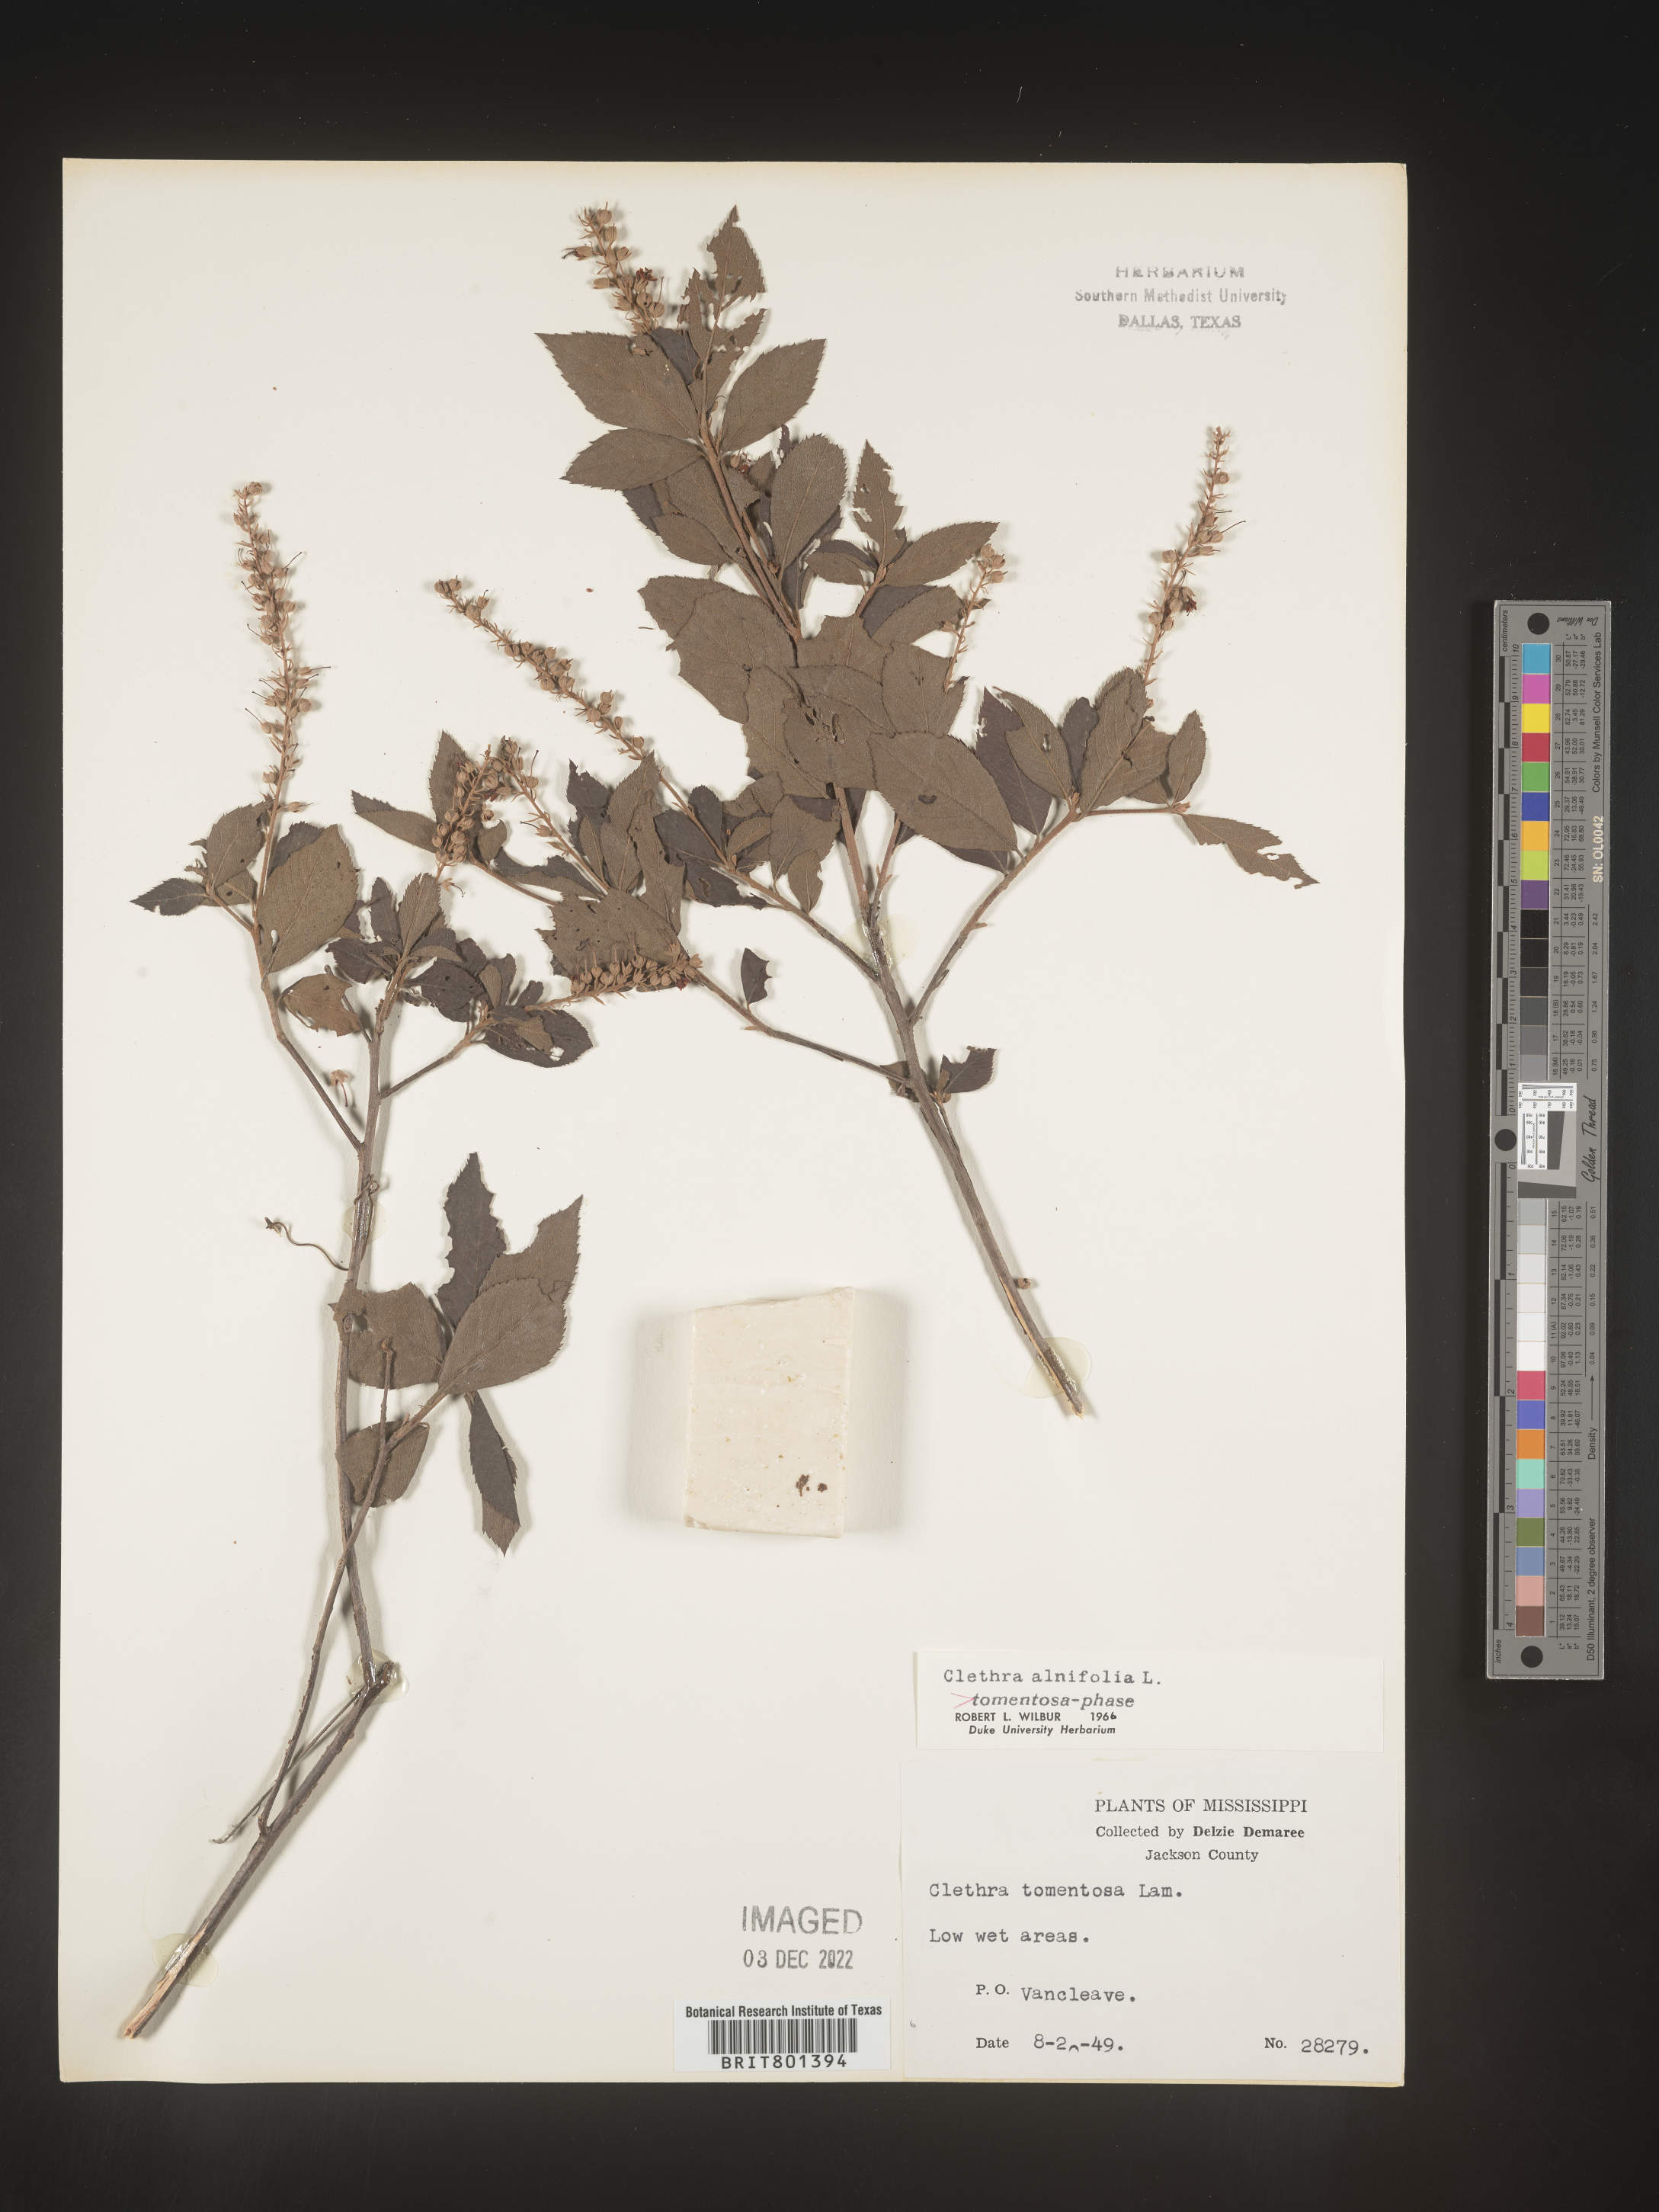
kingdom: Plantae
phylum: Tracheophyta
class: Magnoliopsida
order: Ericales
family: Clethraceae
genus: Clethra
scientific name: Clethra alnifolia
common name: Sweet pepperbush
